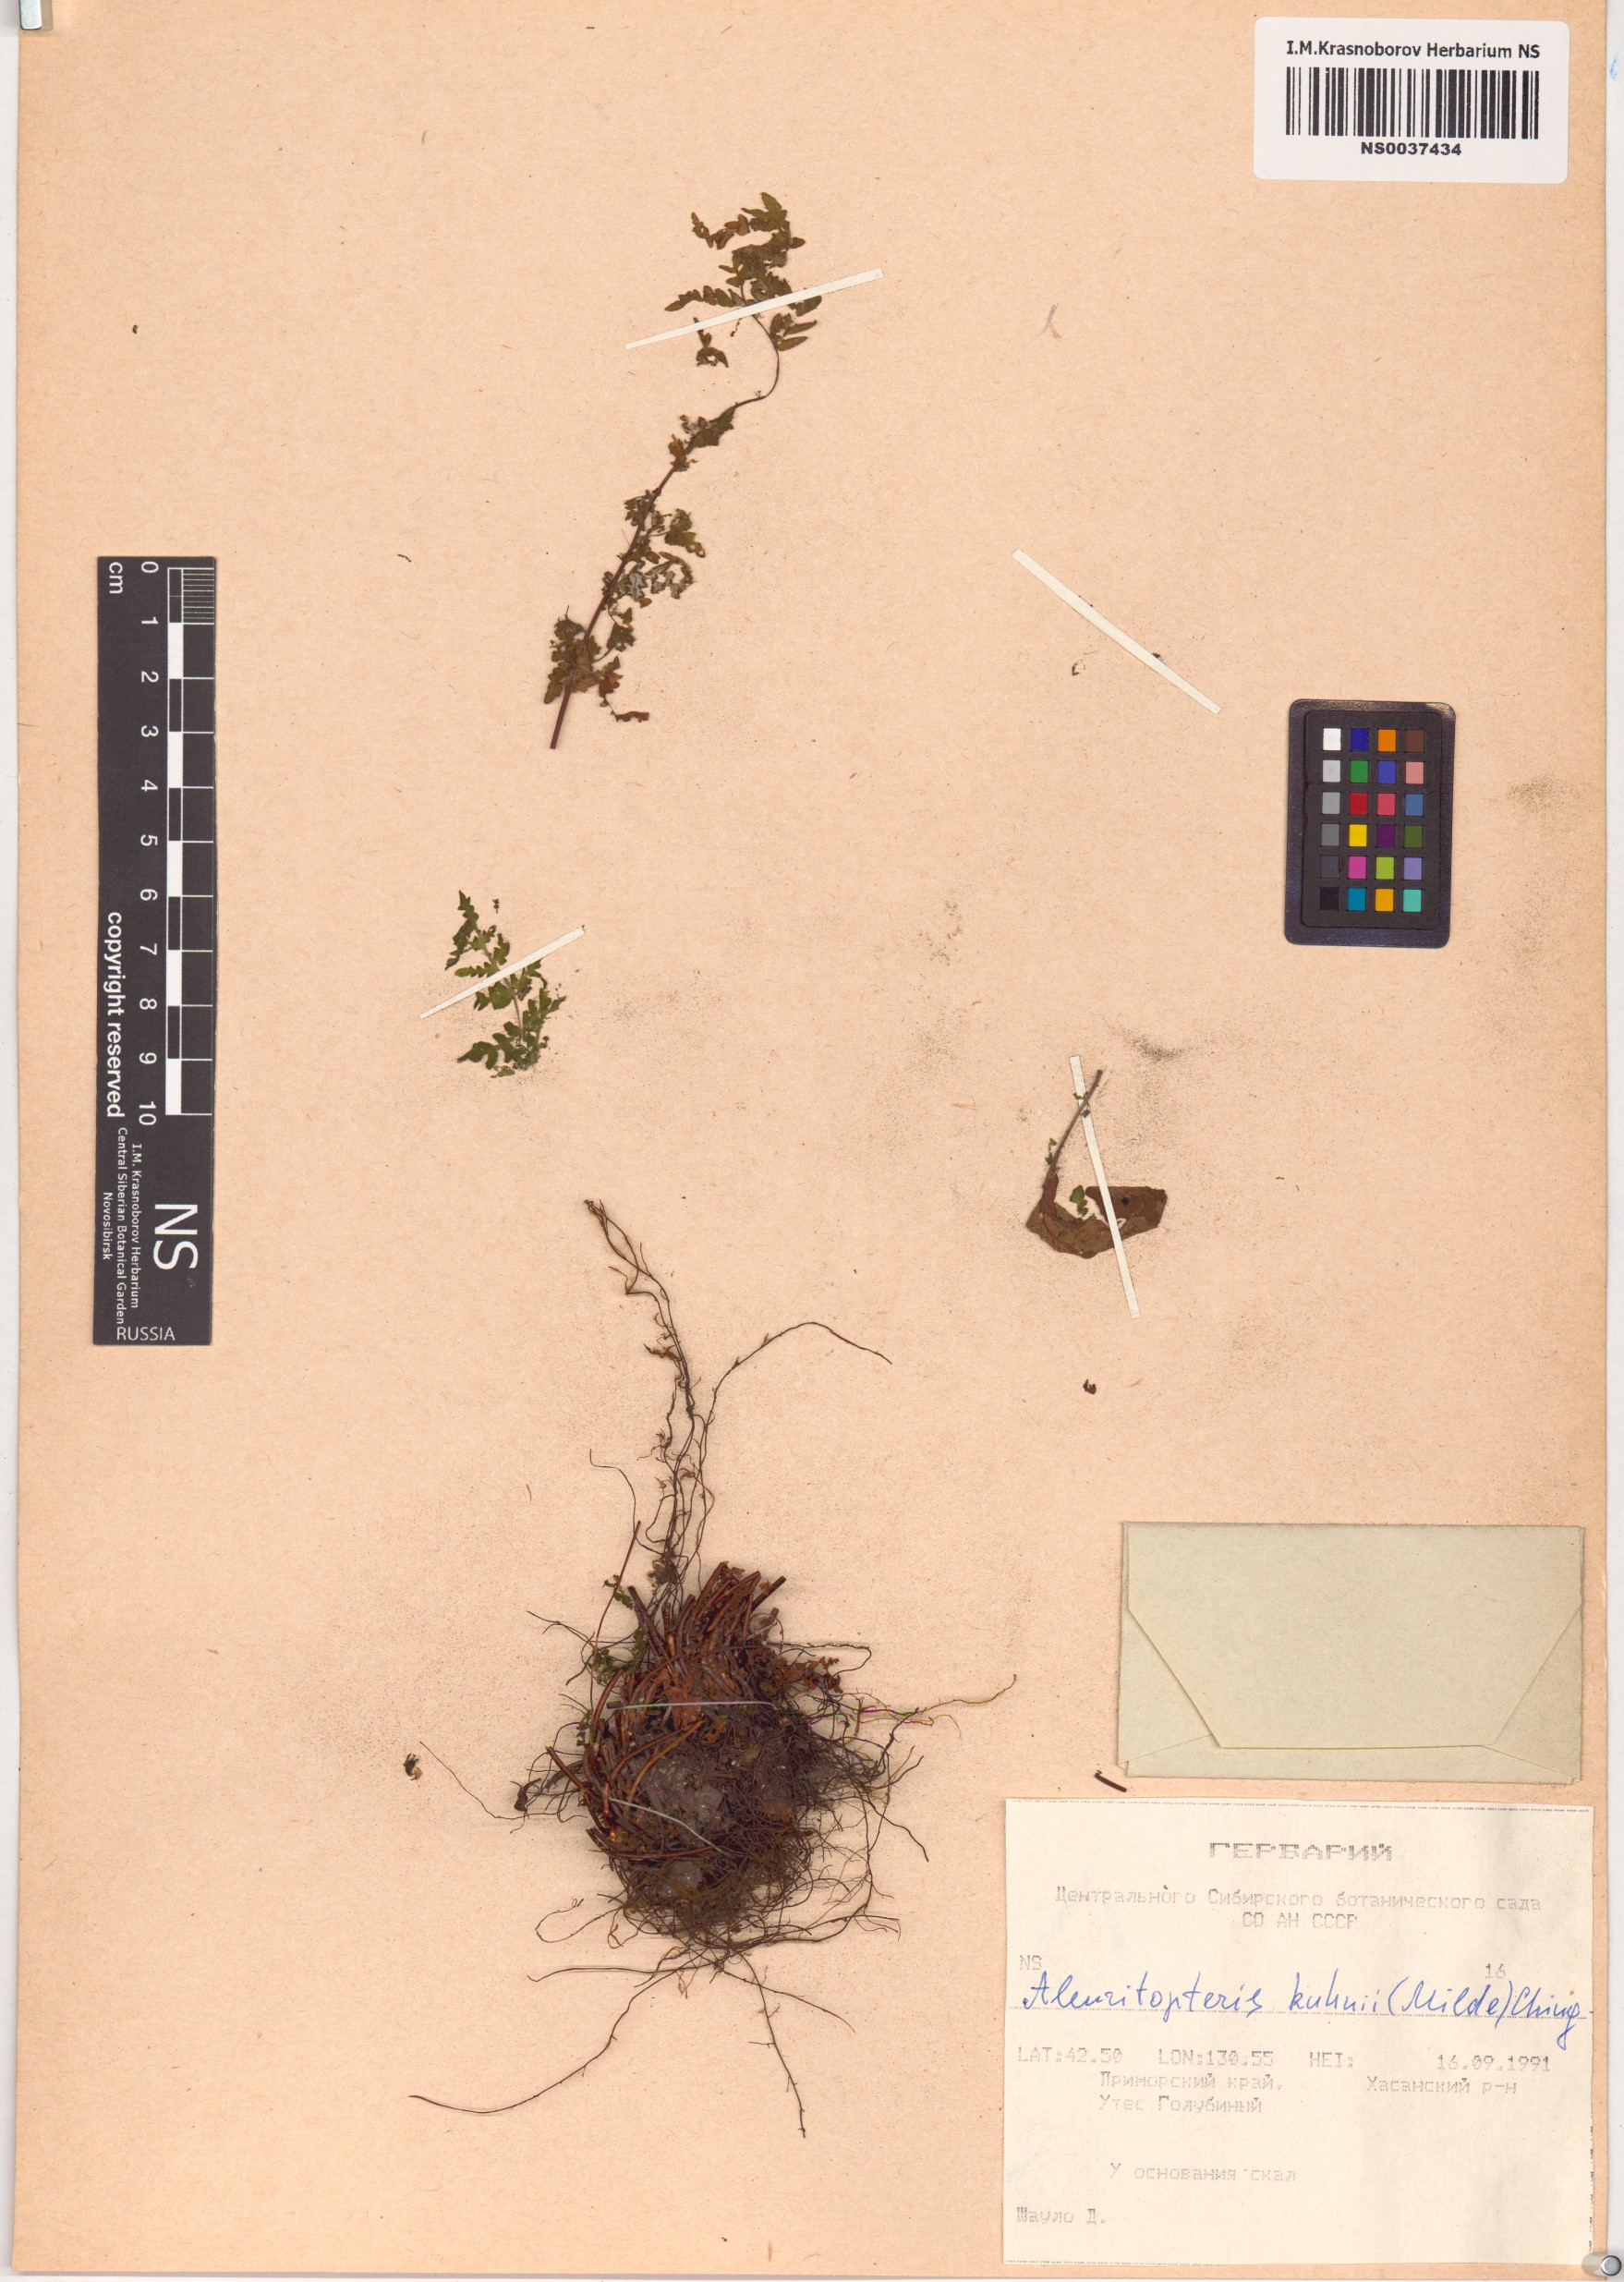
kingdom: Plantae
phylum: Tracheophyta
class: Polypodiopsida
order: Polypodiales
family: Pteridaceae
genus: Oeosporangium
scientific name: Oeosporangium kuhnii
